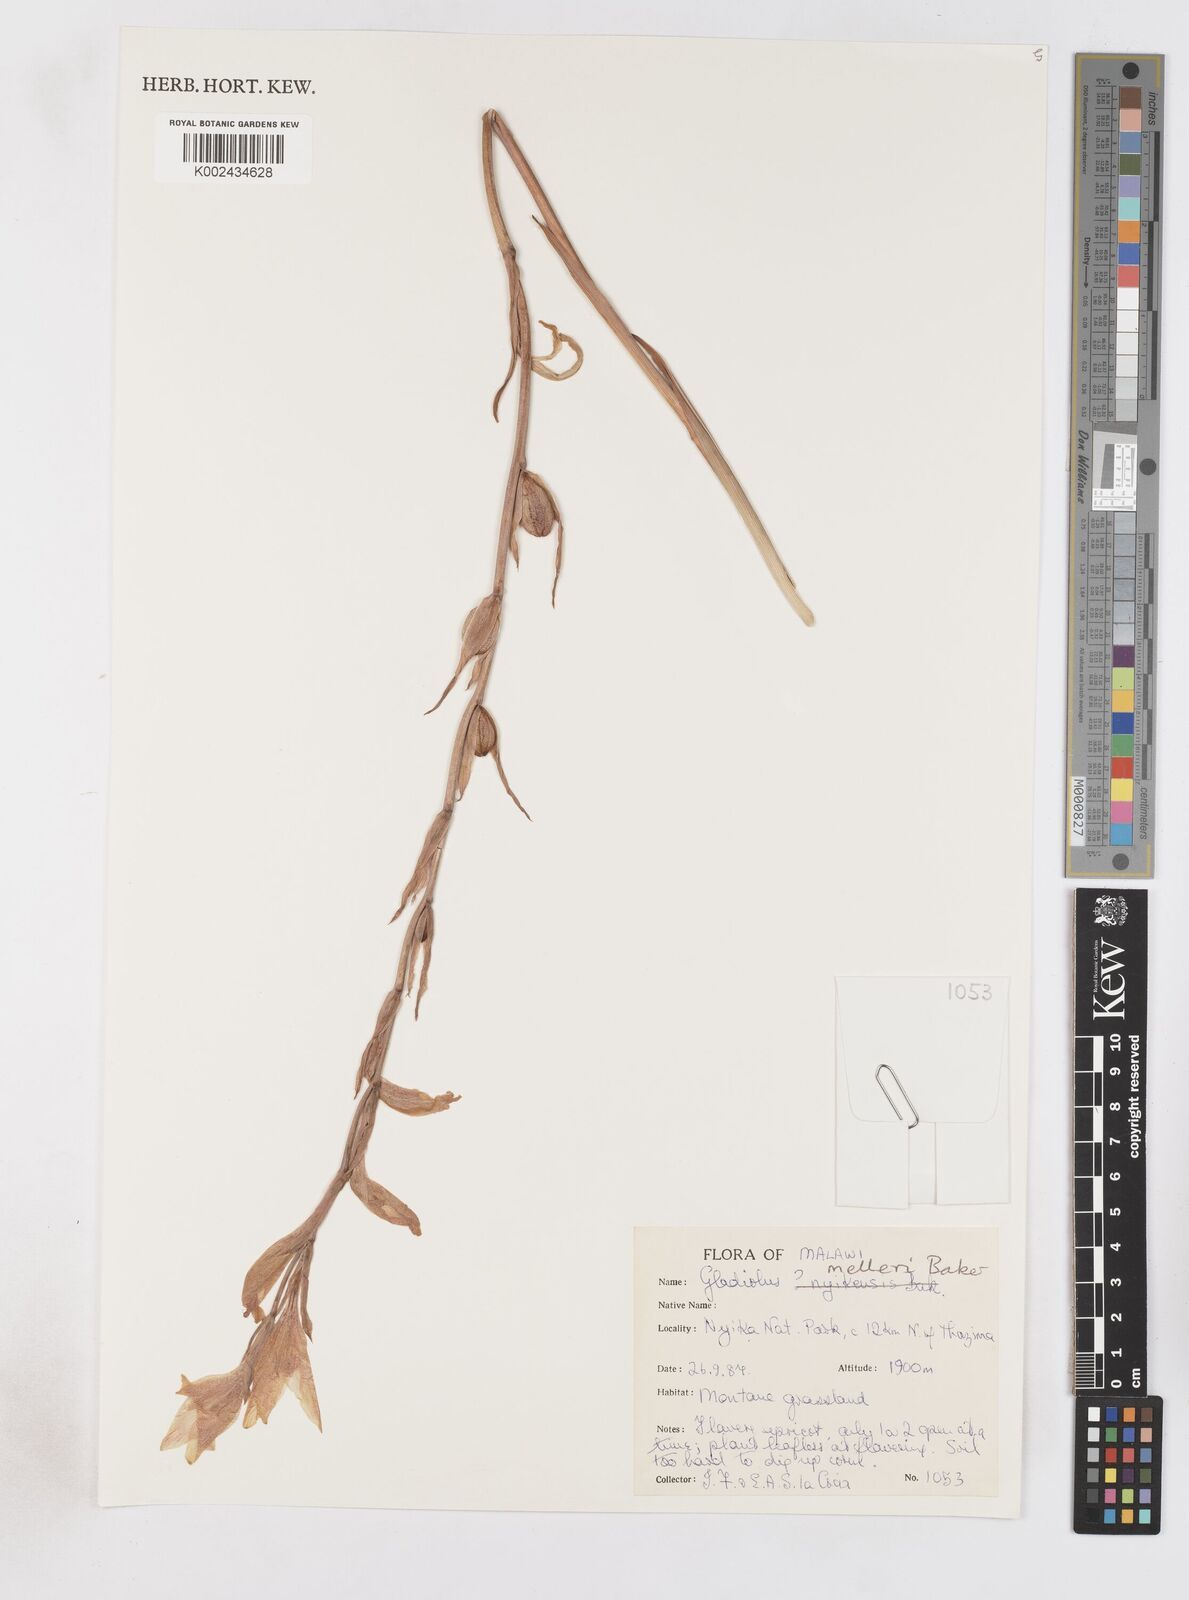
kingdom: Plantae
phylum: Tracheophyta
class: Liliopsida
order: Asparagales
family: Iridaceae
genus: Gladiolus
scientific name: Gladiolus melleri
